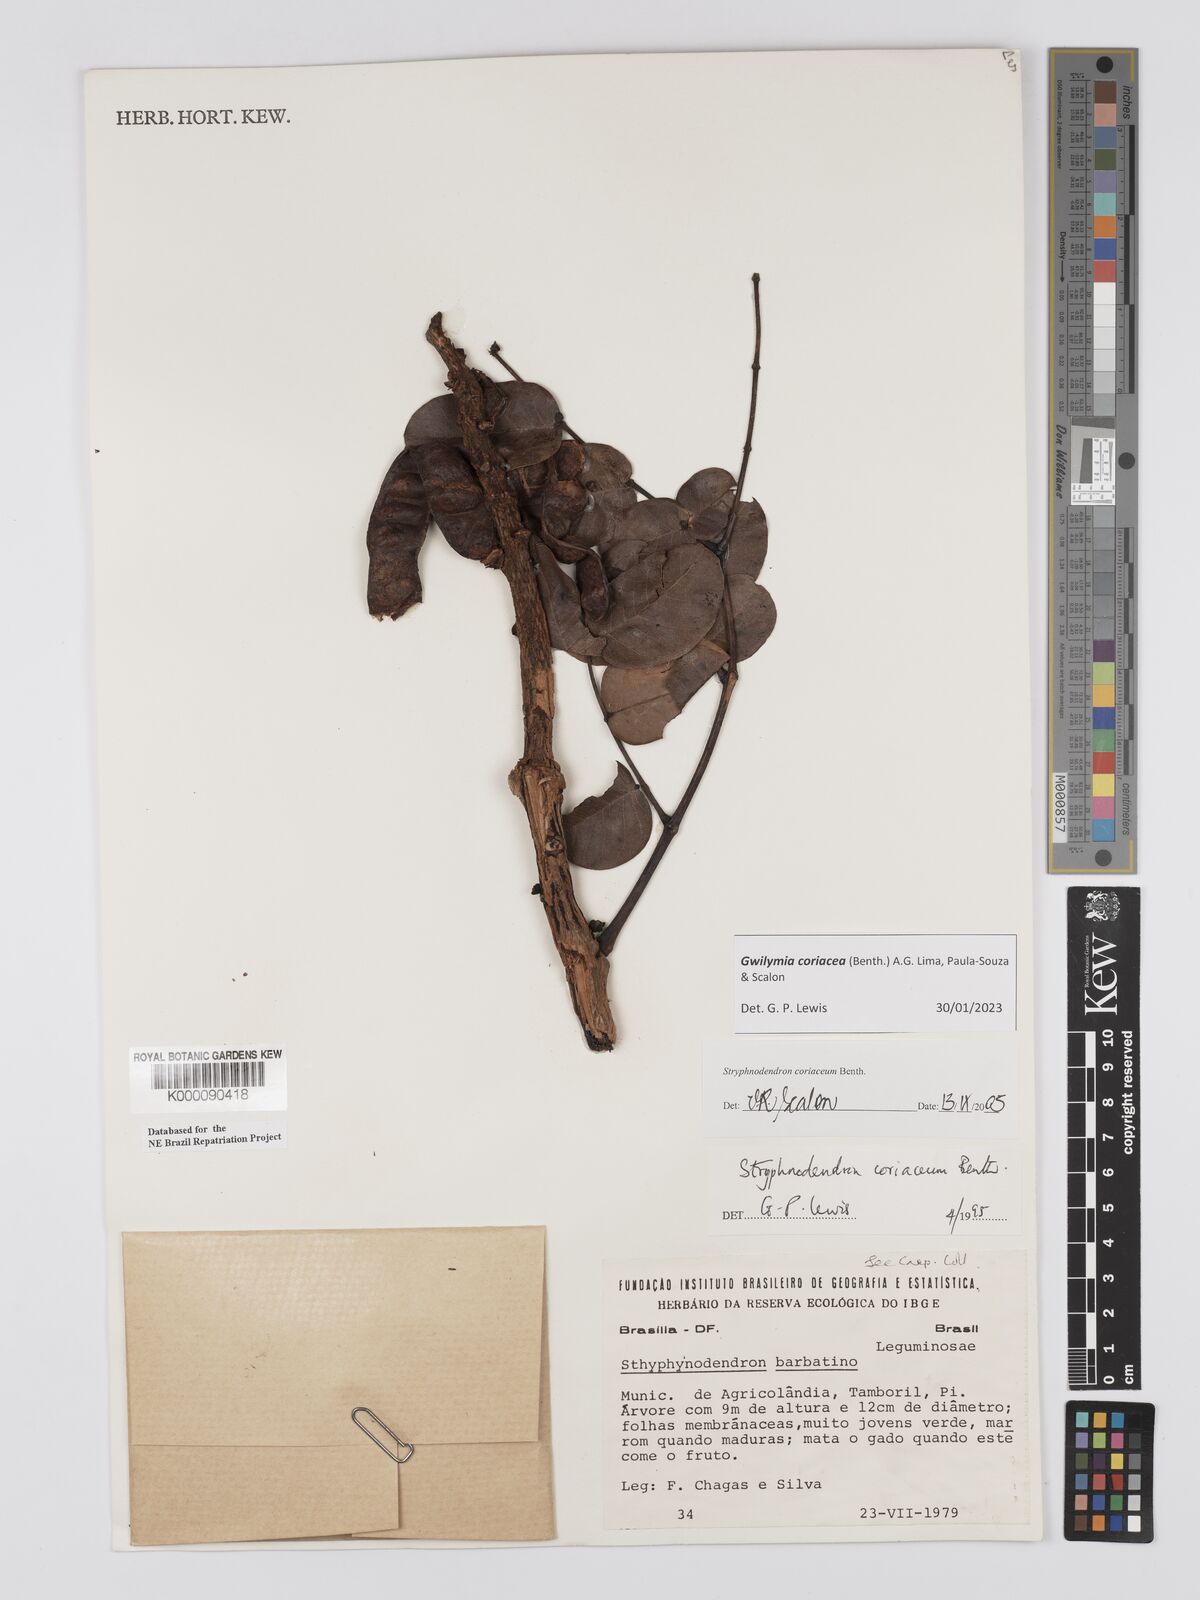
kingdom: Plantae
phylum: Tracheophyta
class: Magnoliopsida
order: Fabales
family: Fabaceae
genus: Stryphnodendron
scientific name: Stryphnodendron coriaceum
